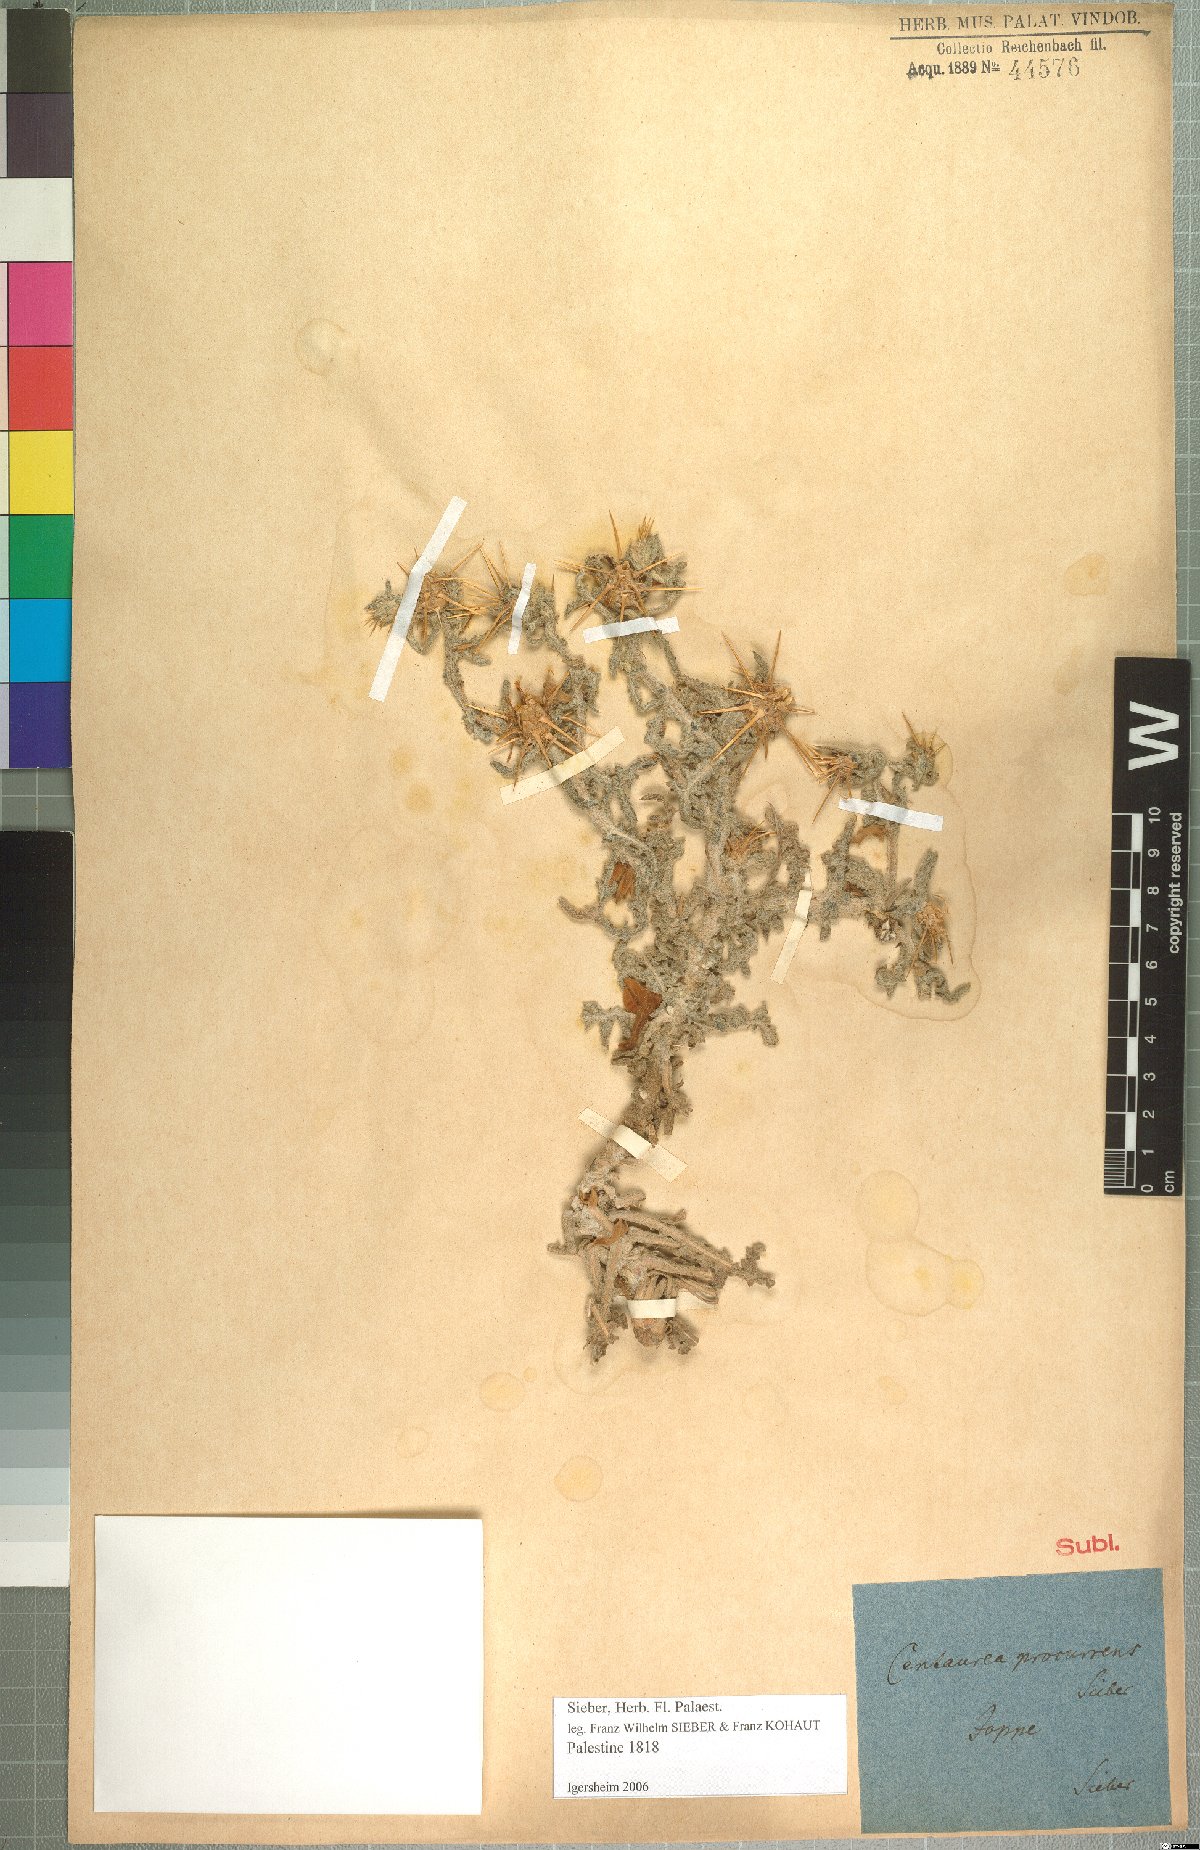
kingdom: Plantae
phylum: Tracheophyta
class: Magnoliopsida
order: Asterales
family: Asteraceae
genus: Centaurea
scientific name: Centaurea procurrens
